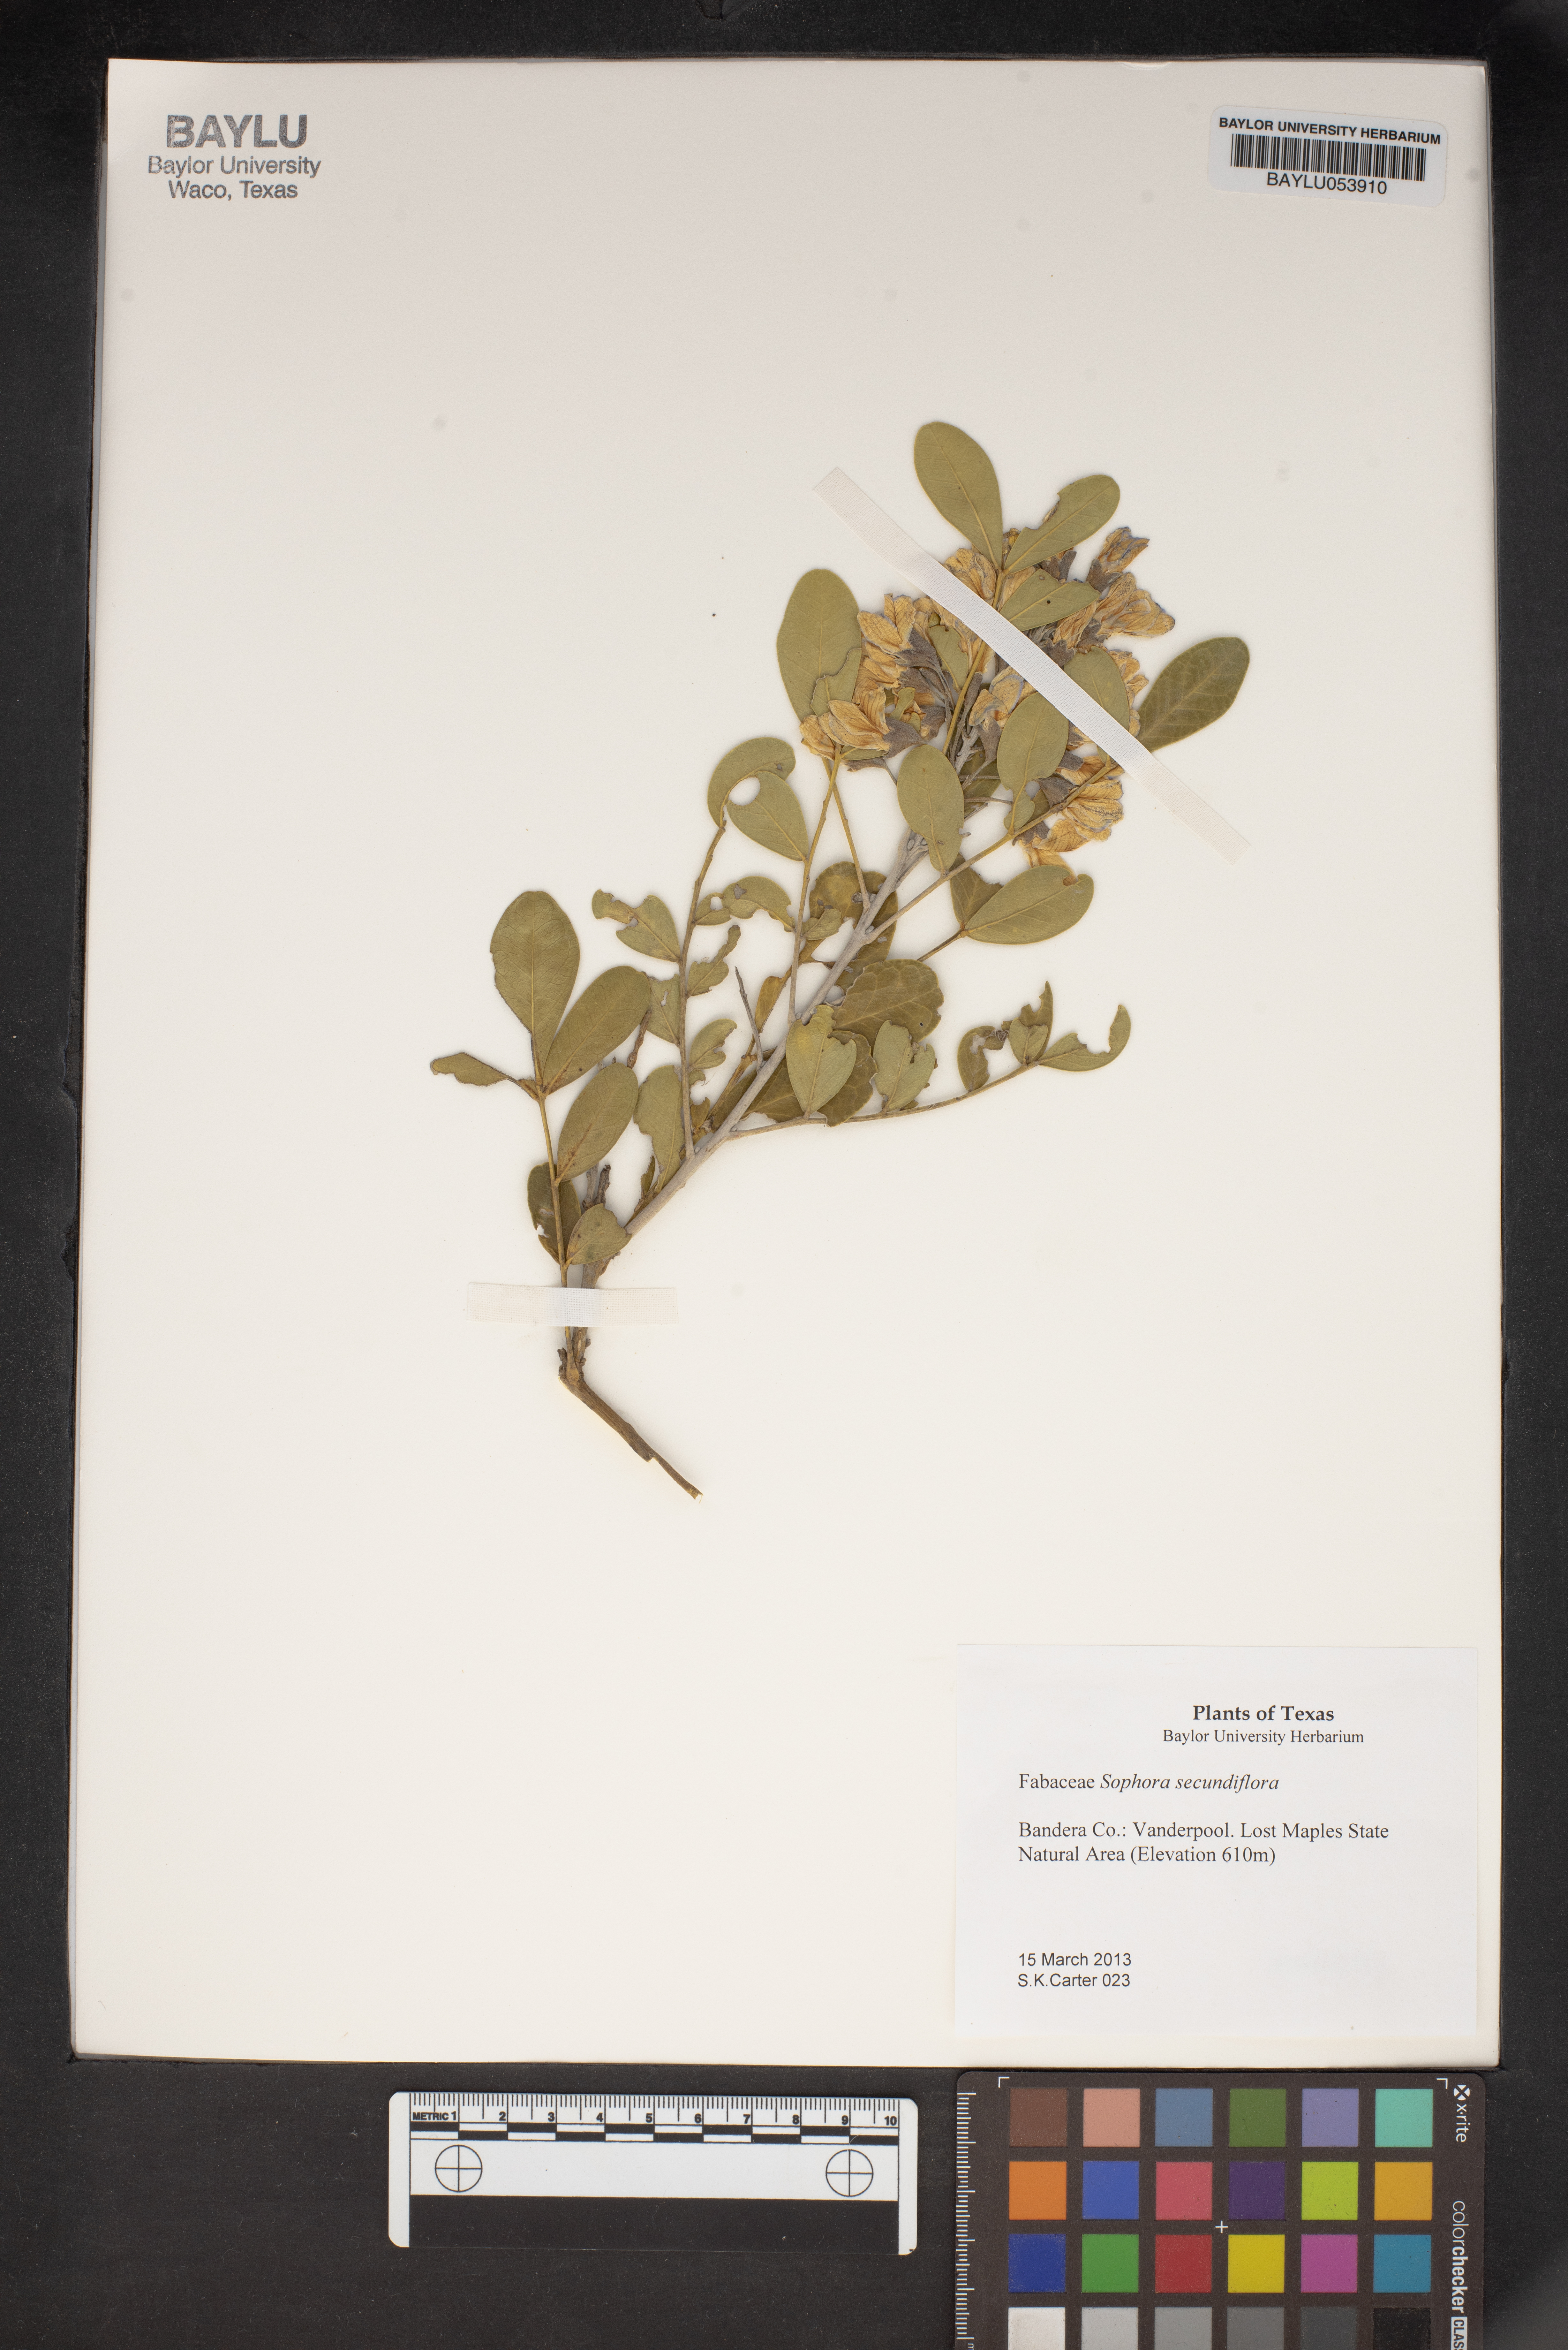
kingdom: Plantae
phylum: Tracheophyta
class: Magnoliopsida
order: Fabales
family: Fabaceae
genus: Dermatophyllum
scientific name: Dermatophyllum secundiflorum
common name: Texas-mountain-laurel
